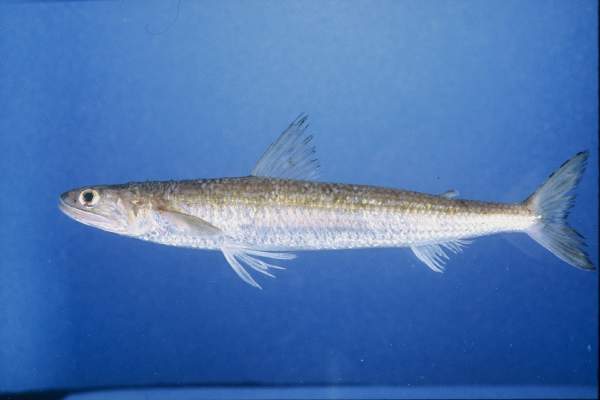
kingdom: Animalia
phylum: Chordata
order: Aulopiformes
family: Synodontidae
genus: Saurida
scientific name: Saurida
